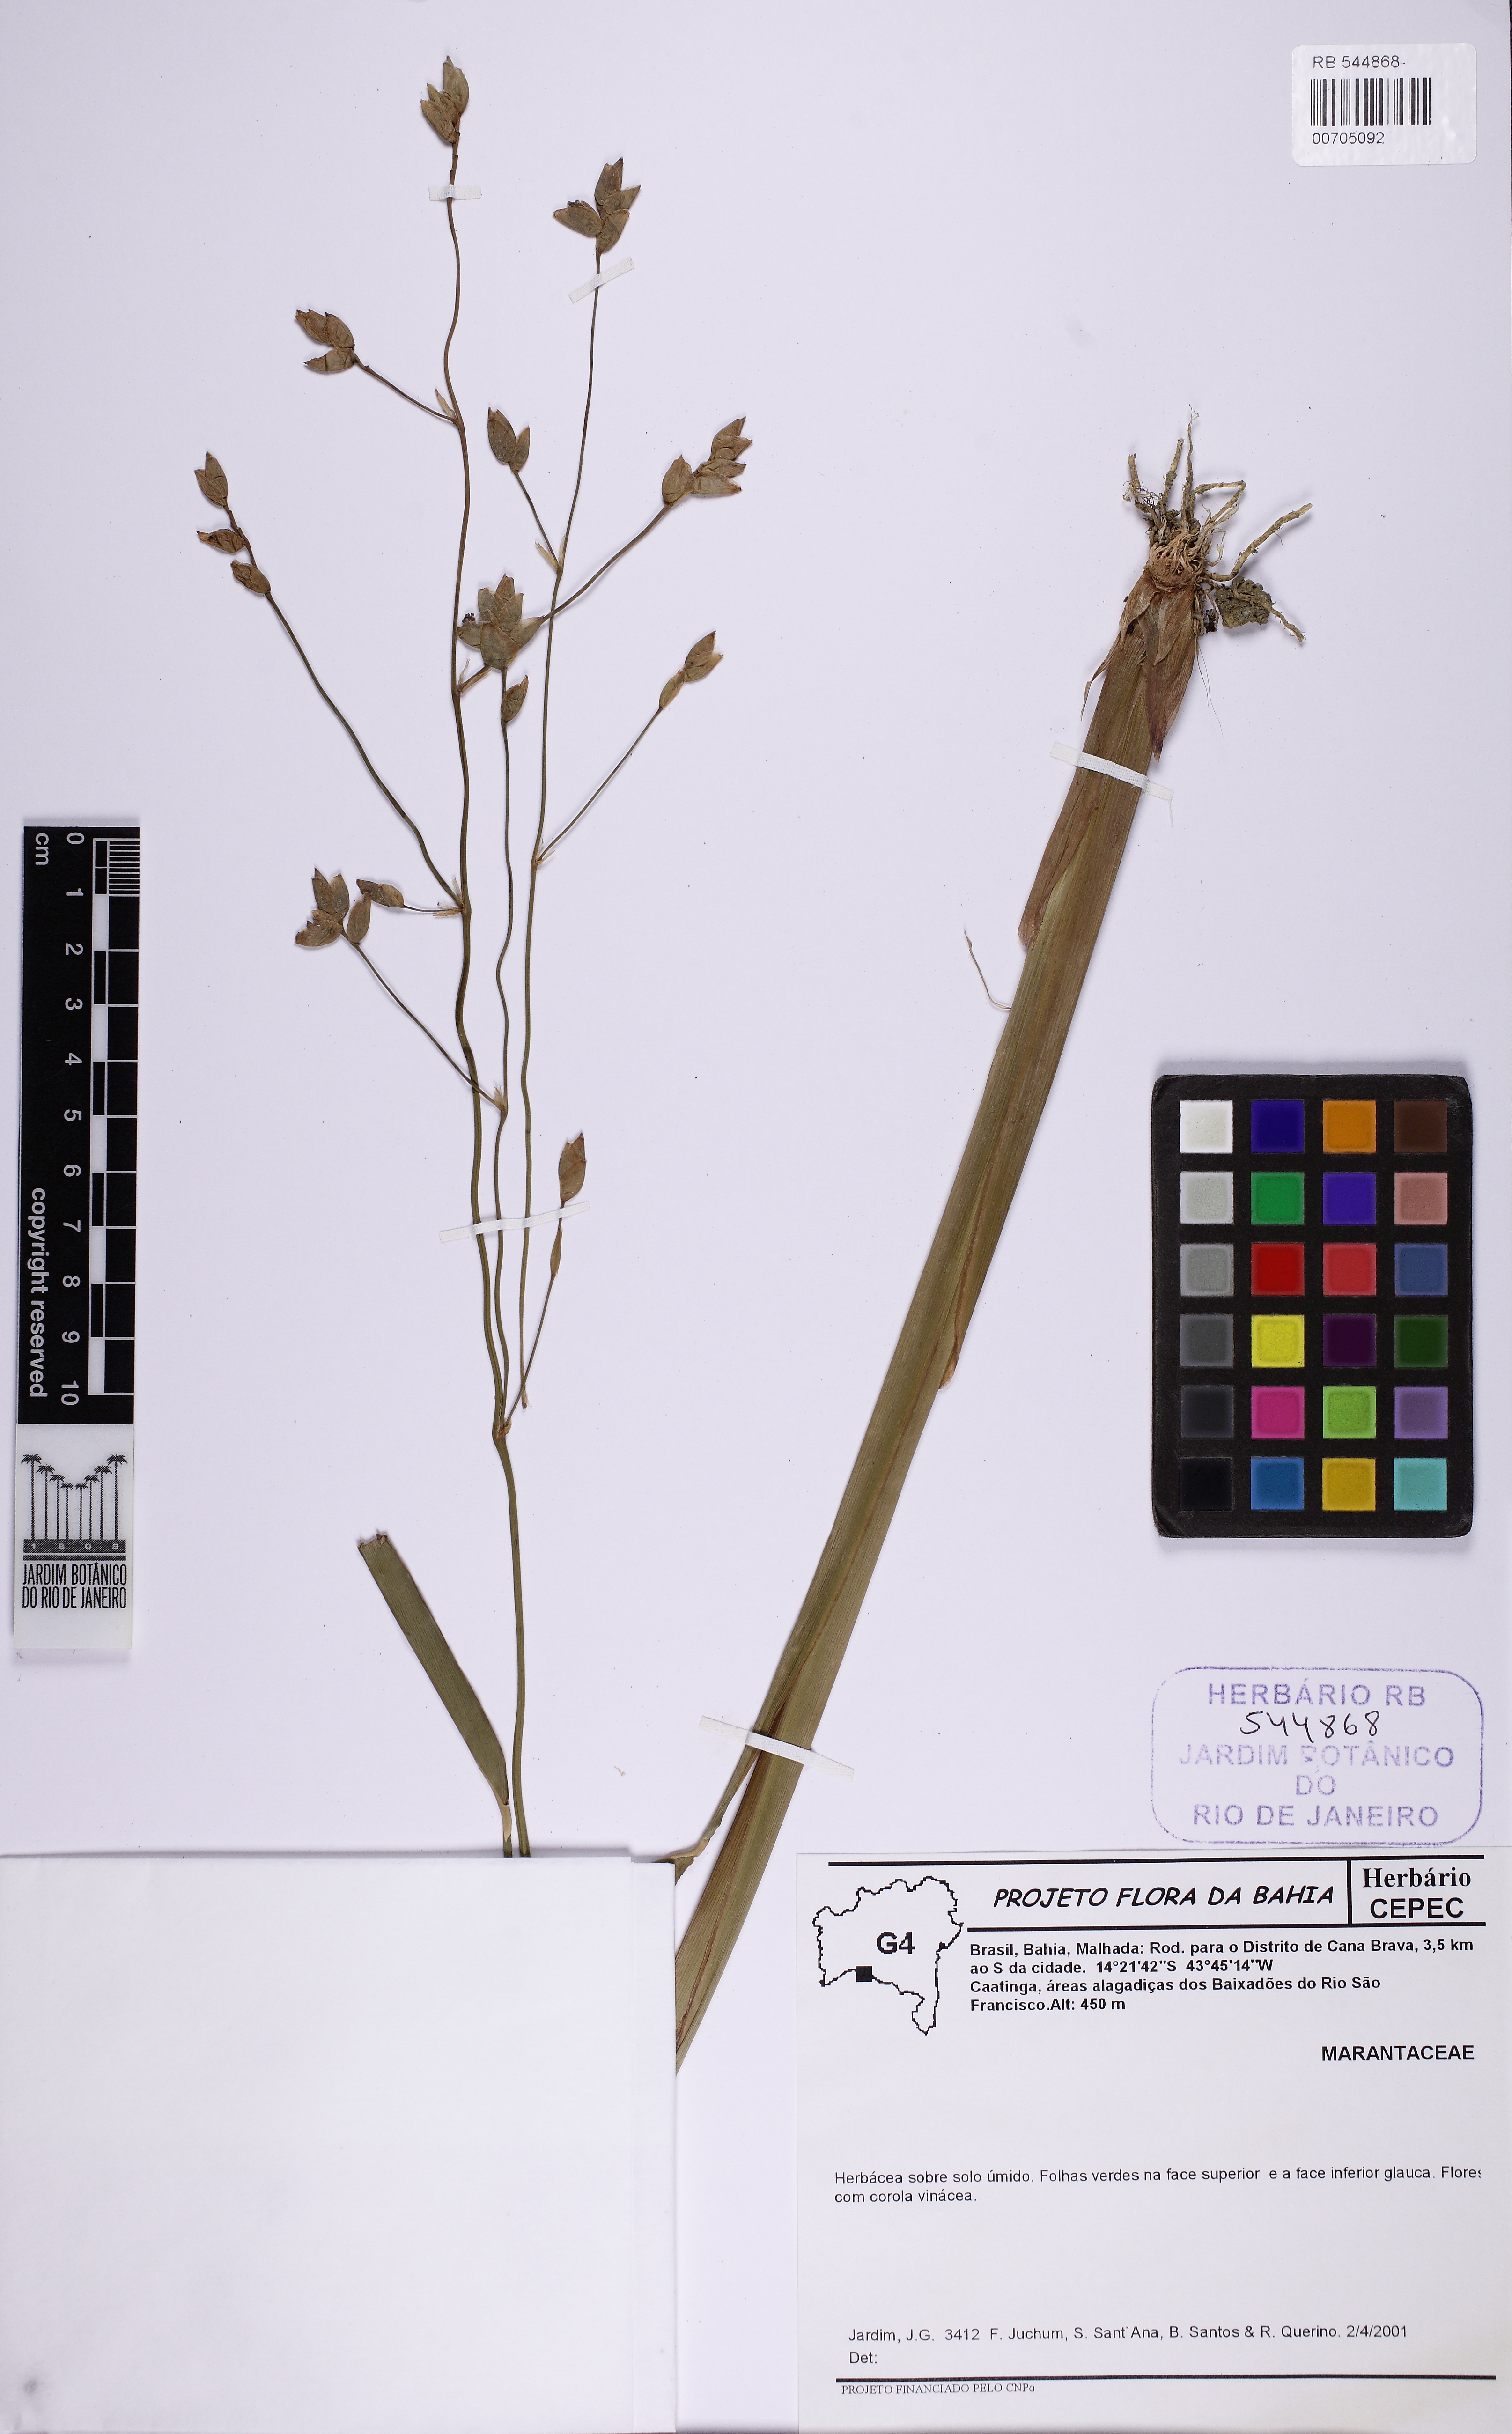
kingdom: Plantae
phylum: Tracheophyta
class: Liliopsida
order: Zingiberales
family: Marantaceae
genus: Thalia
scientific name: Thalia densibracteata
